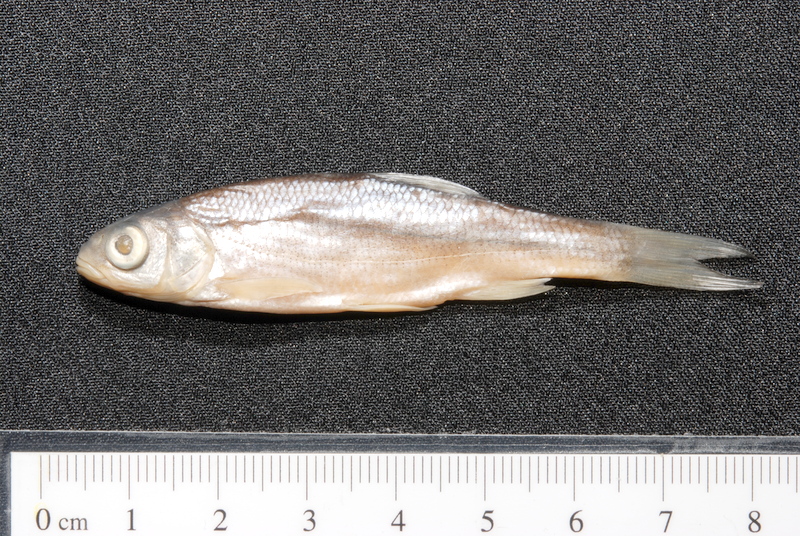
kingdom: Animalia
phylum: Chordata
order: Cypriniformes
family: Cyprinidae
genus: Leuciscus
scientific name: Leuciscus idus
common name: Ide
